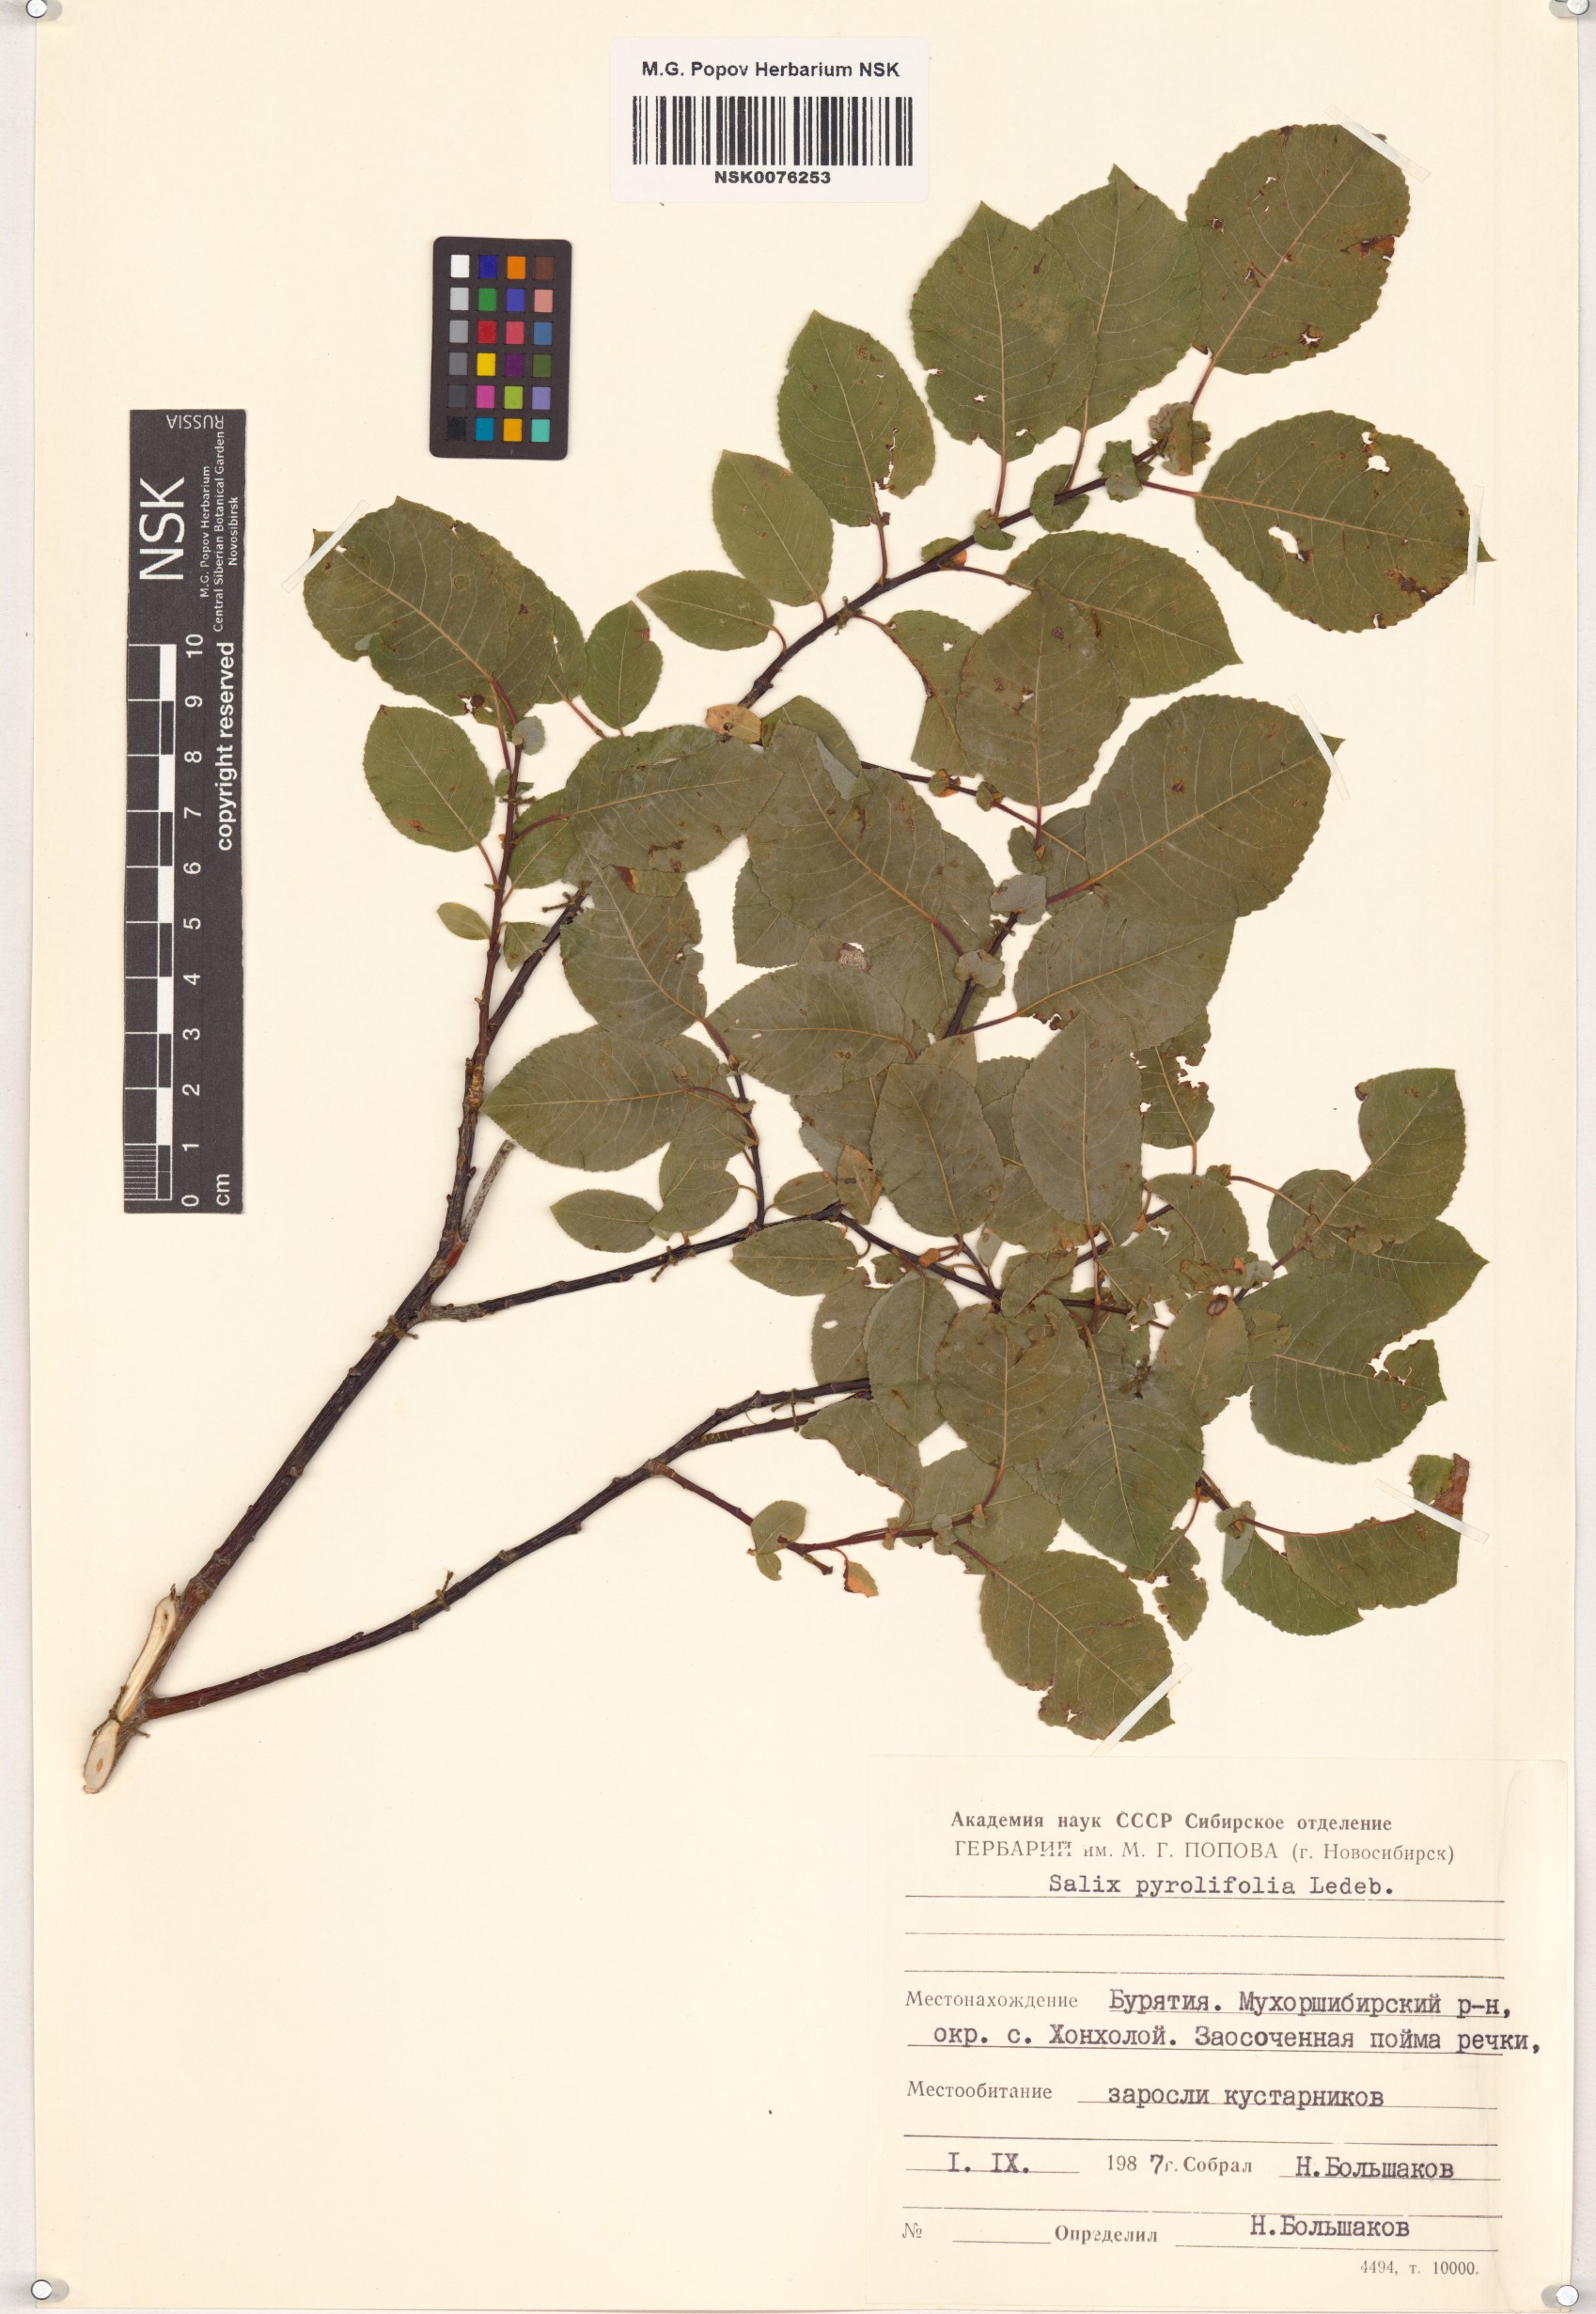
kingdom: Plantae
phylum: Tracheophyta
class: Magnoliopsida
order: Malpighiales
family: Salicaceae
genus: Salix
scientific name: Salix pyrolifolia
